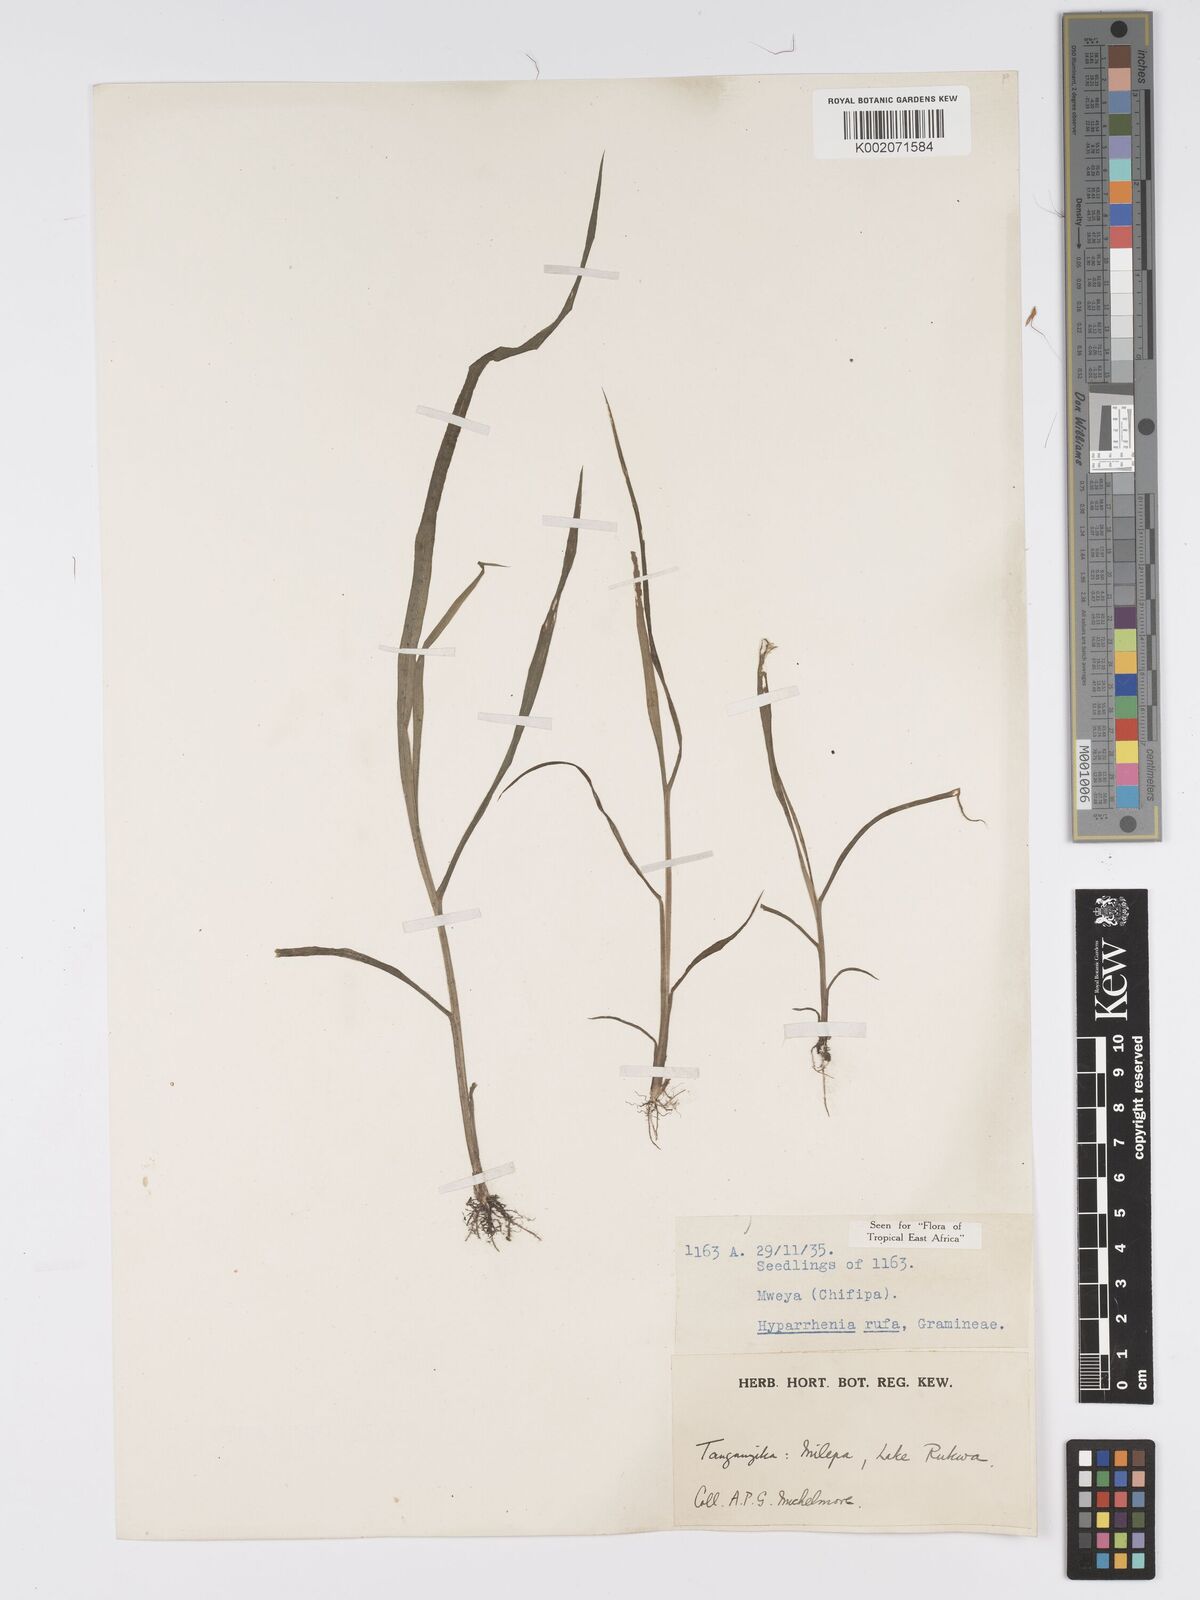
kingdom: Plantae
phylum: Tracheophyta
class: Liliopsida
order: Poales
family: Poaceae
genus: Hyparrhenia
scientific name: Hyparrhenia rufa
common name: Jaraguagrass
